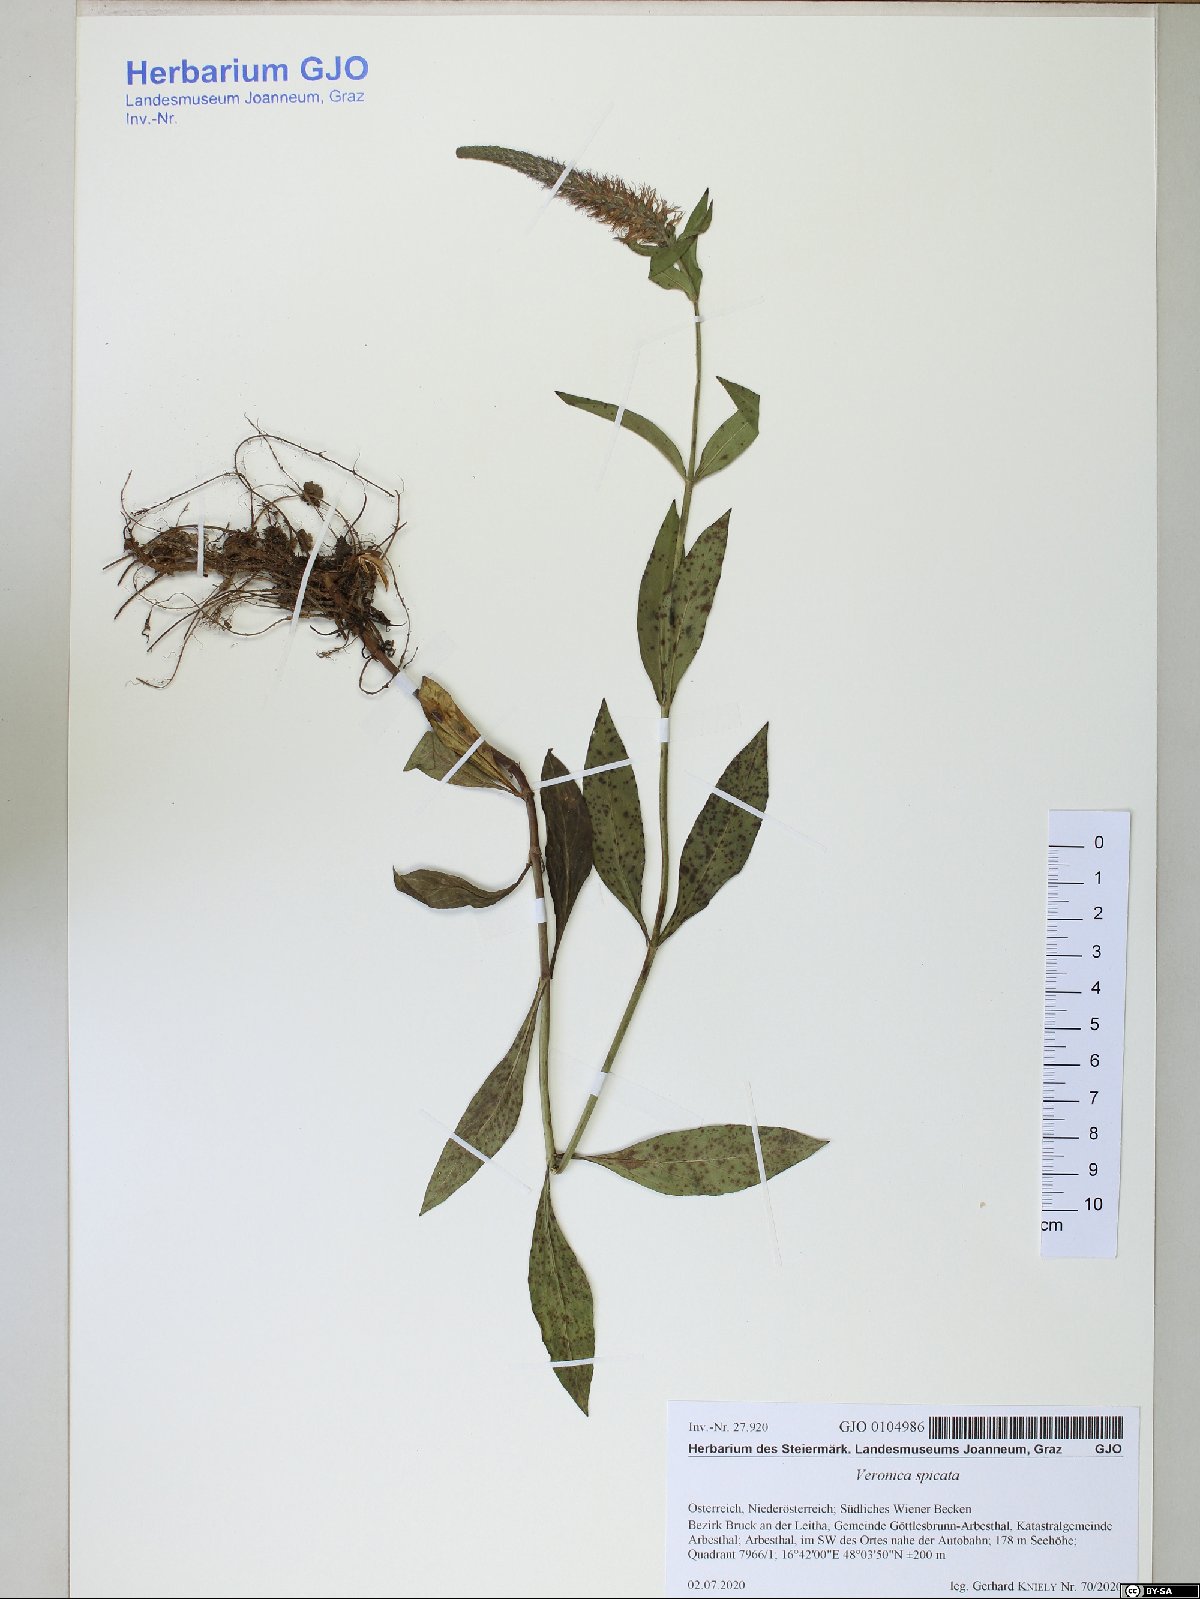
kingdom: Plantae
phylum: Tracheophyta
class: Magnoliopsida
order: Lamiales
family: Plantaginaceae
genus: Veronica
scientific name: Veronica spicata
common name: Spiked speedwell
